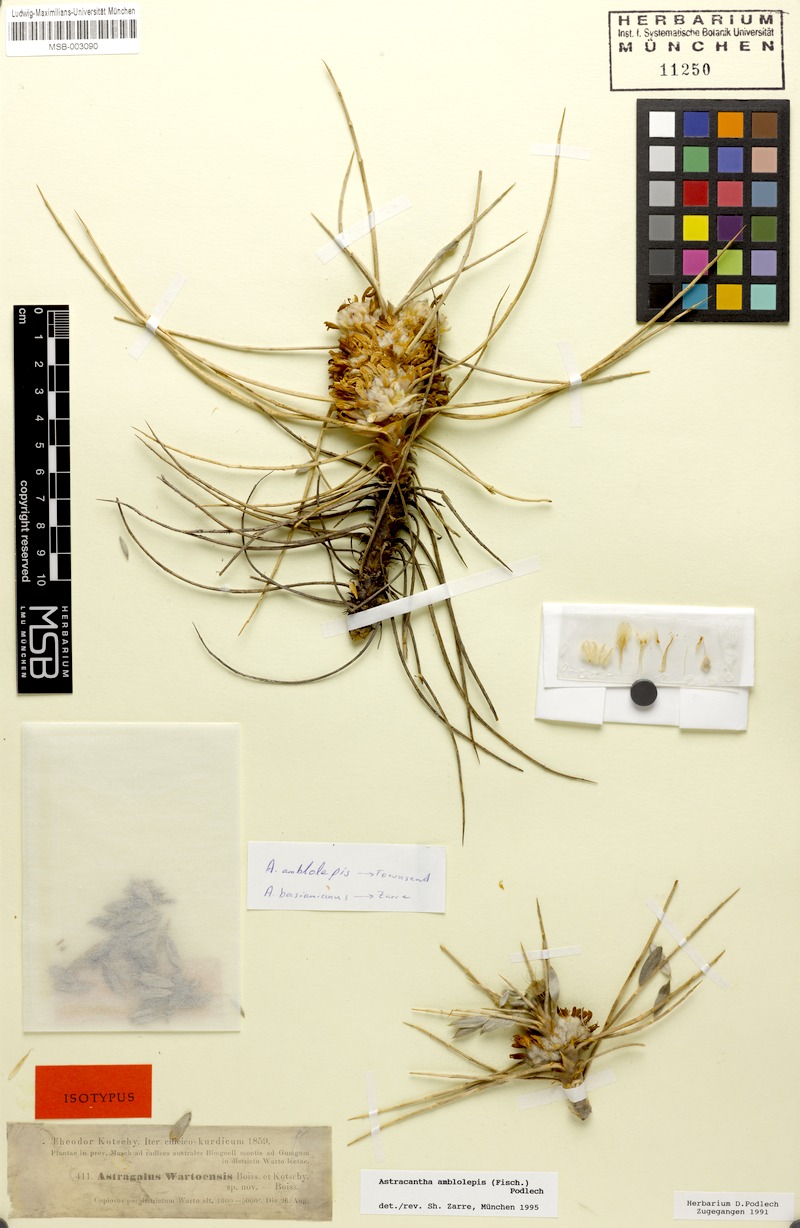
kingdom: Plantae
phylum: Tracheophyta
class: Magnoliopsida
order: Fabales
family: Fabaceae
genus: Astragalus
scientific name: Astragalus amblolepis
